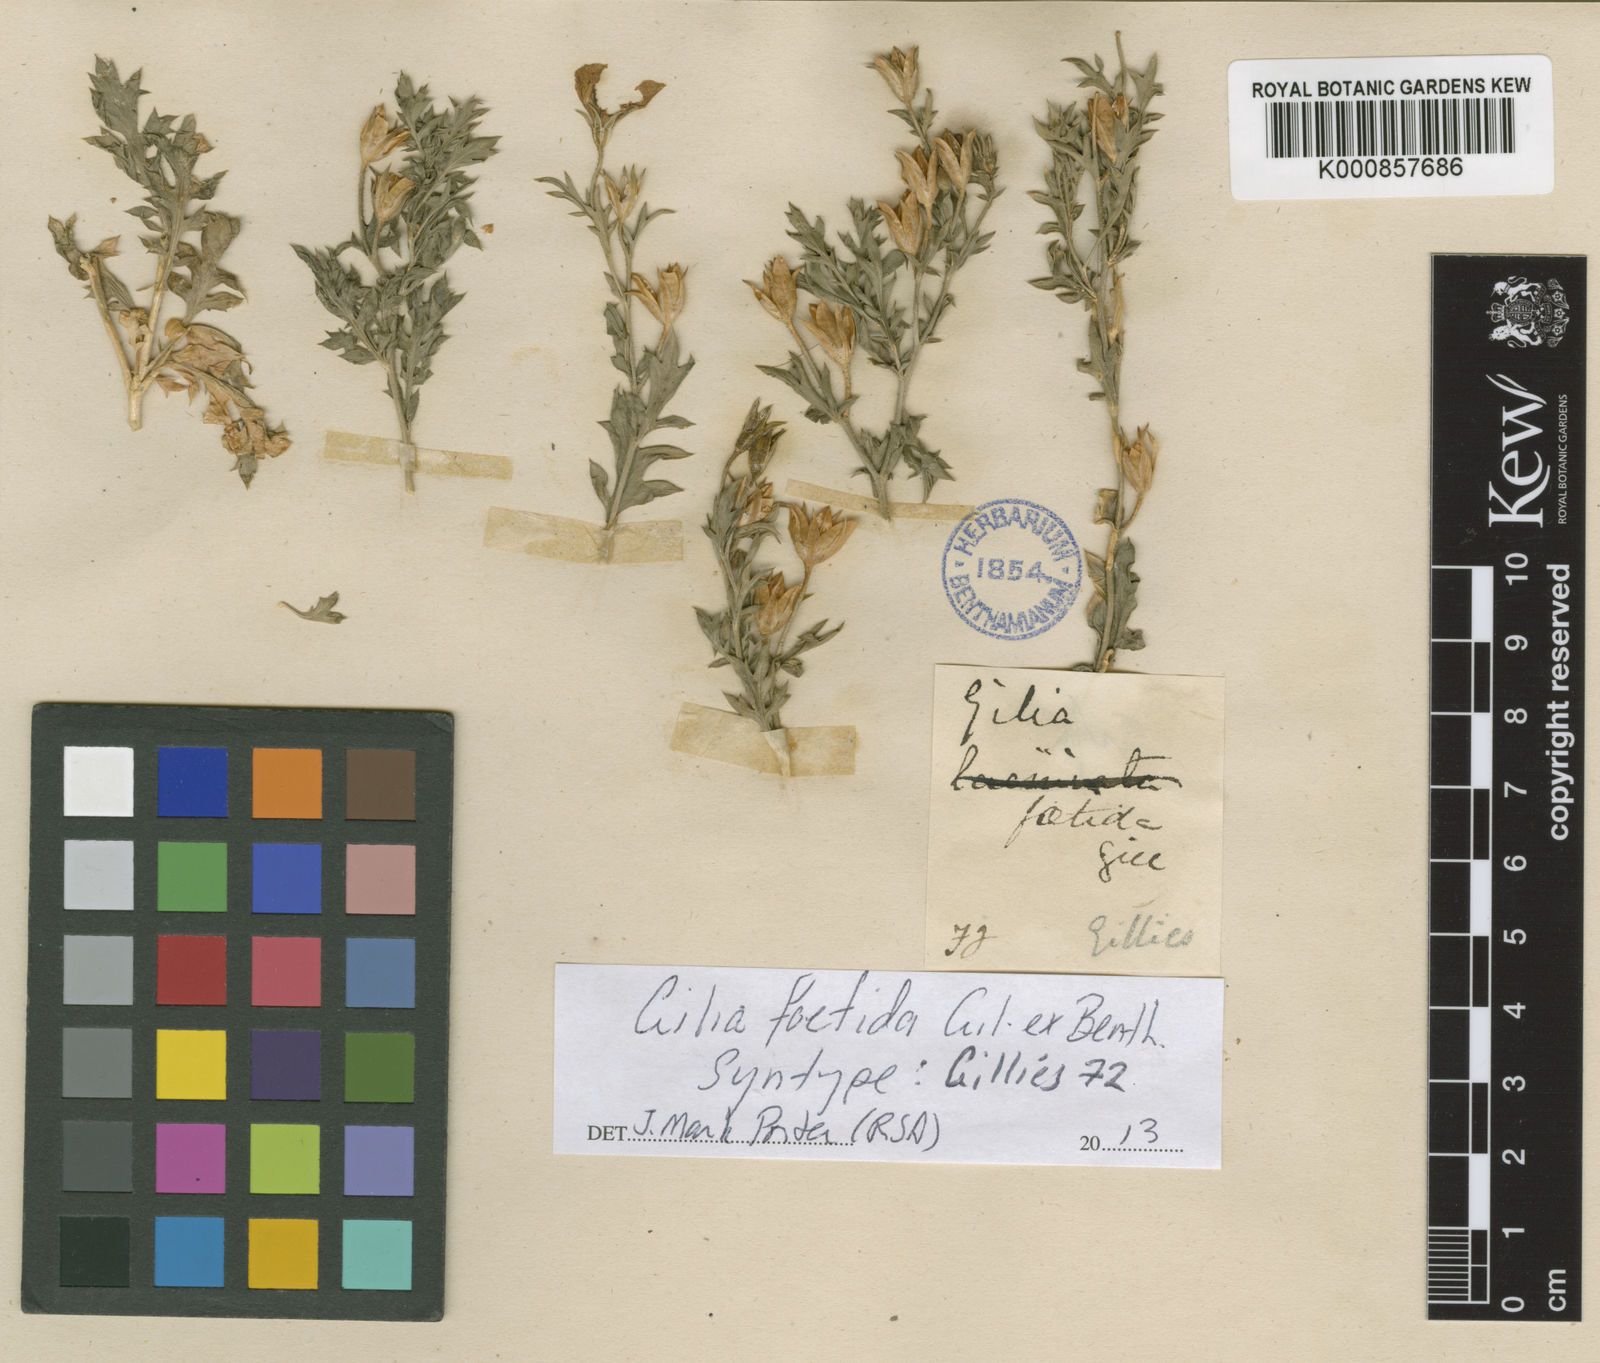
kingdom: Plantae
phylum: Tracheophyta
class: Magnoliopsida
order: Ericales
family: Polemoniaceae
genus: Giliastrum
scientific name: Giliastrum foetidum
